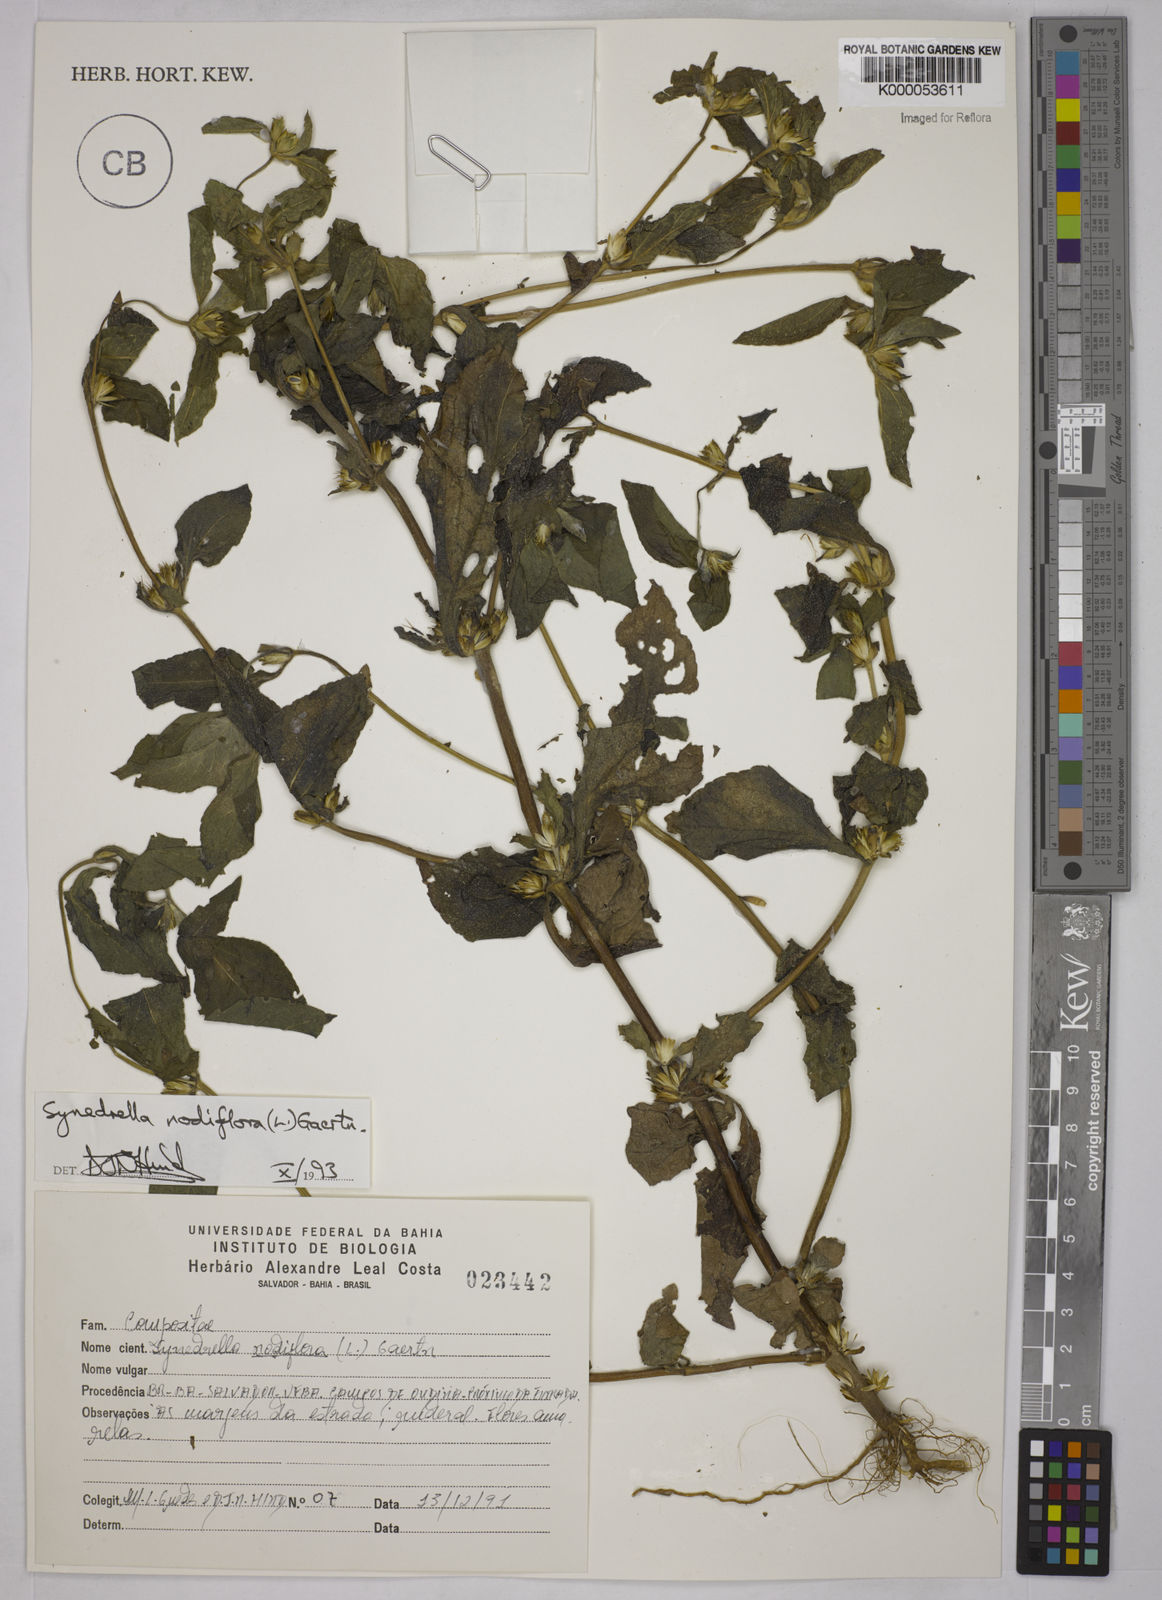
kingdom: Plantae
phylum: Tracheophyta
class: Magnoliopsida
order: Asterales
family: Asteraceae
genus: Synedrella
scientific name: Synedrella nodiflora
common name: Nodeweed
